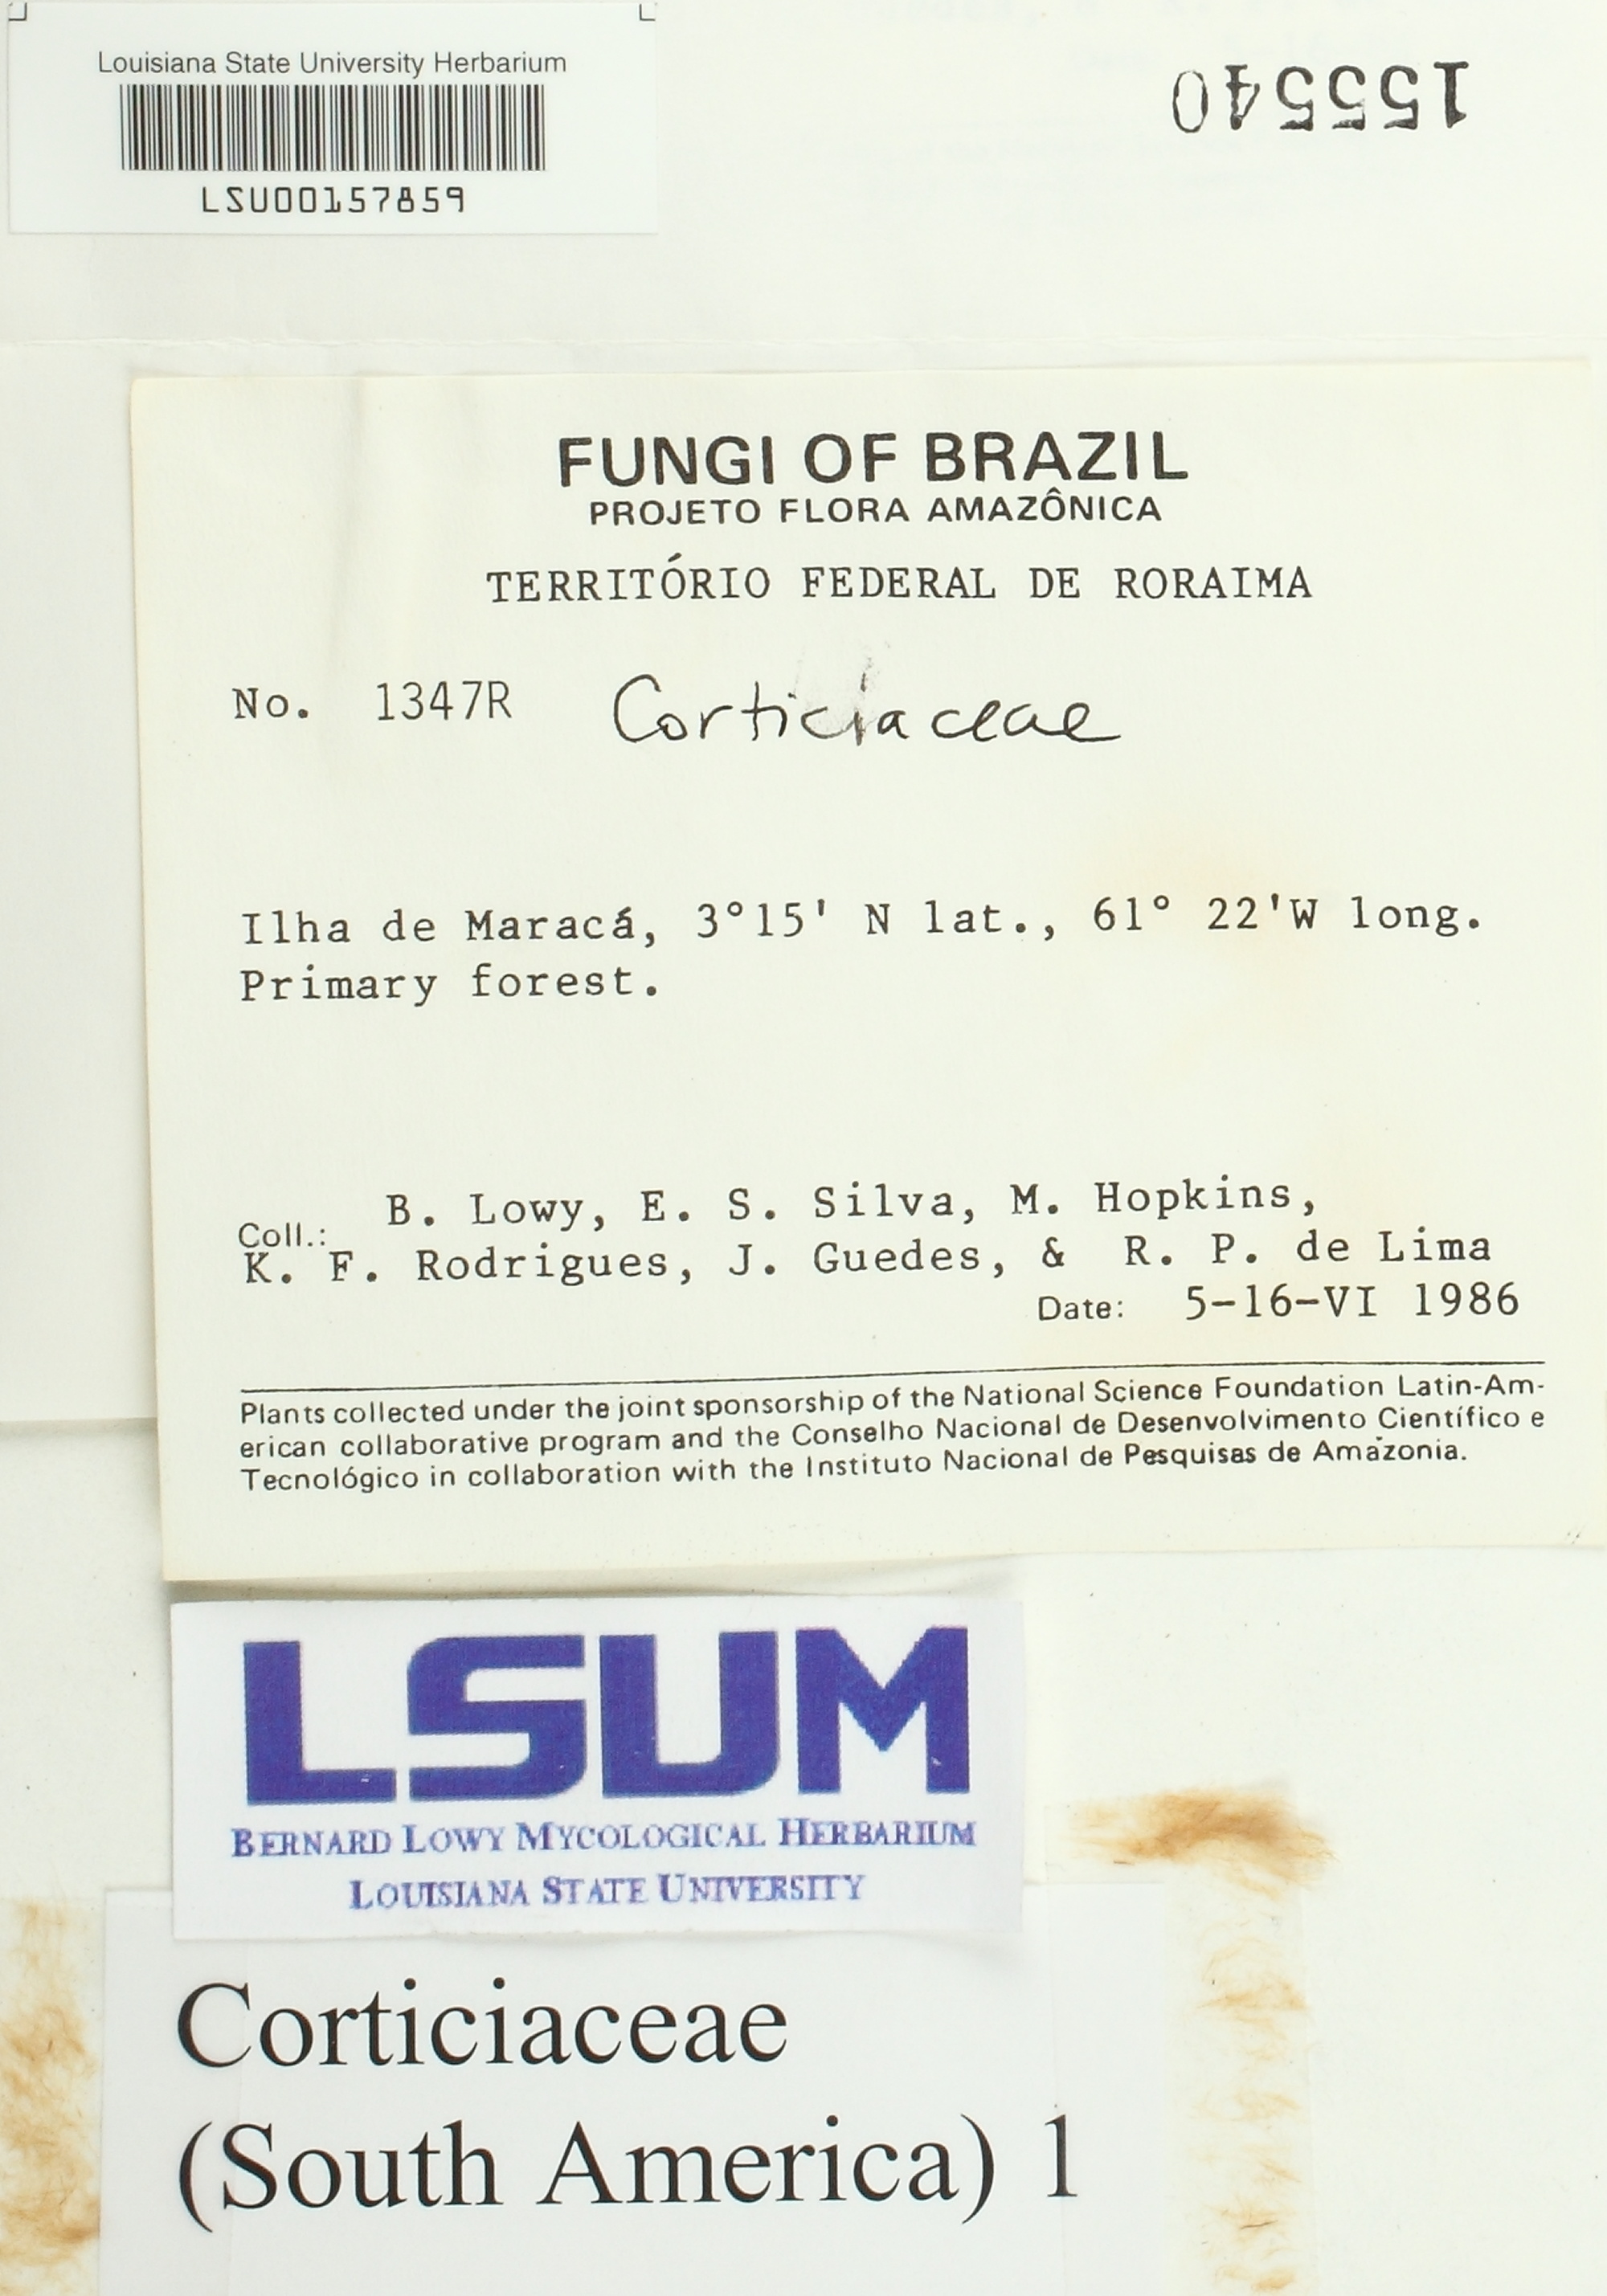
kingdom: Fungi
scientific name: Fungi
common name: Fungi
